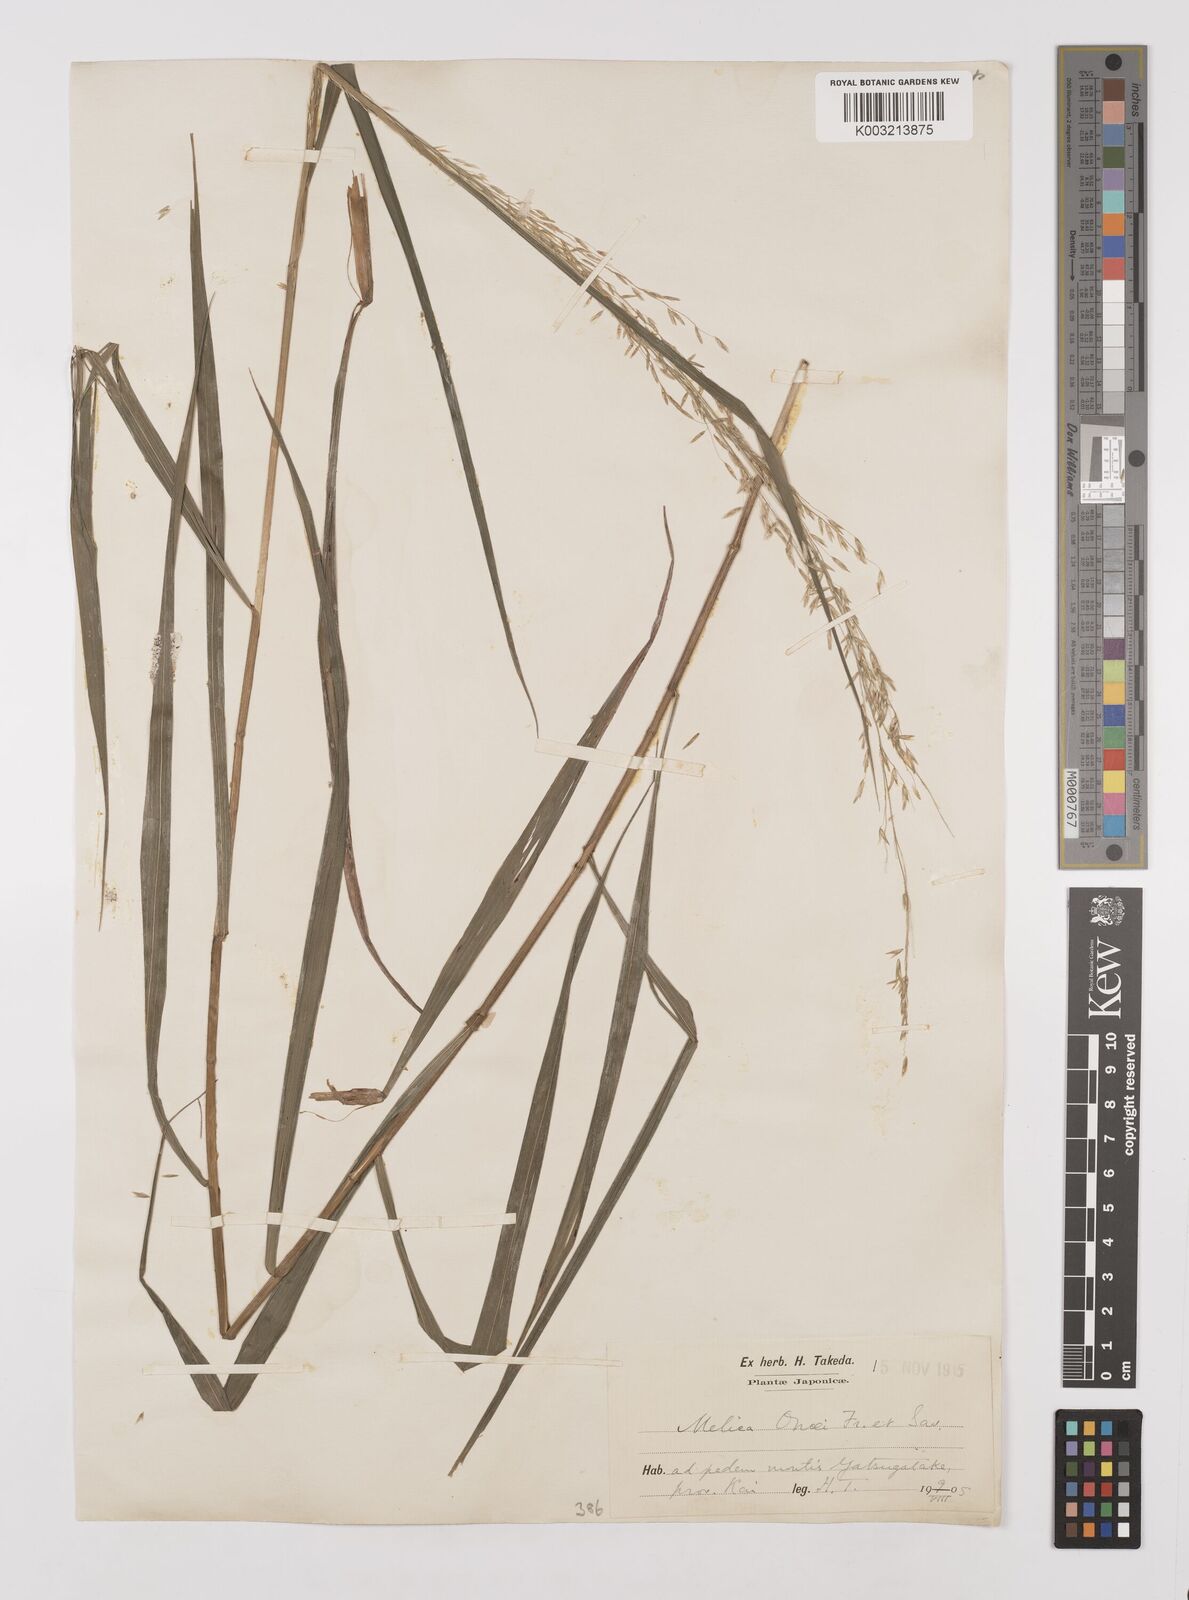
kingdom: Plantae
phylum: Tracheophyta
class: Liliopsida
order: Poales
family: Poaceae
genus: Melica
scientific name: Melica onoei
